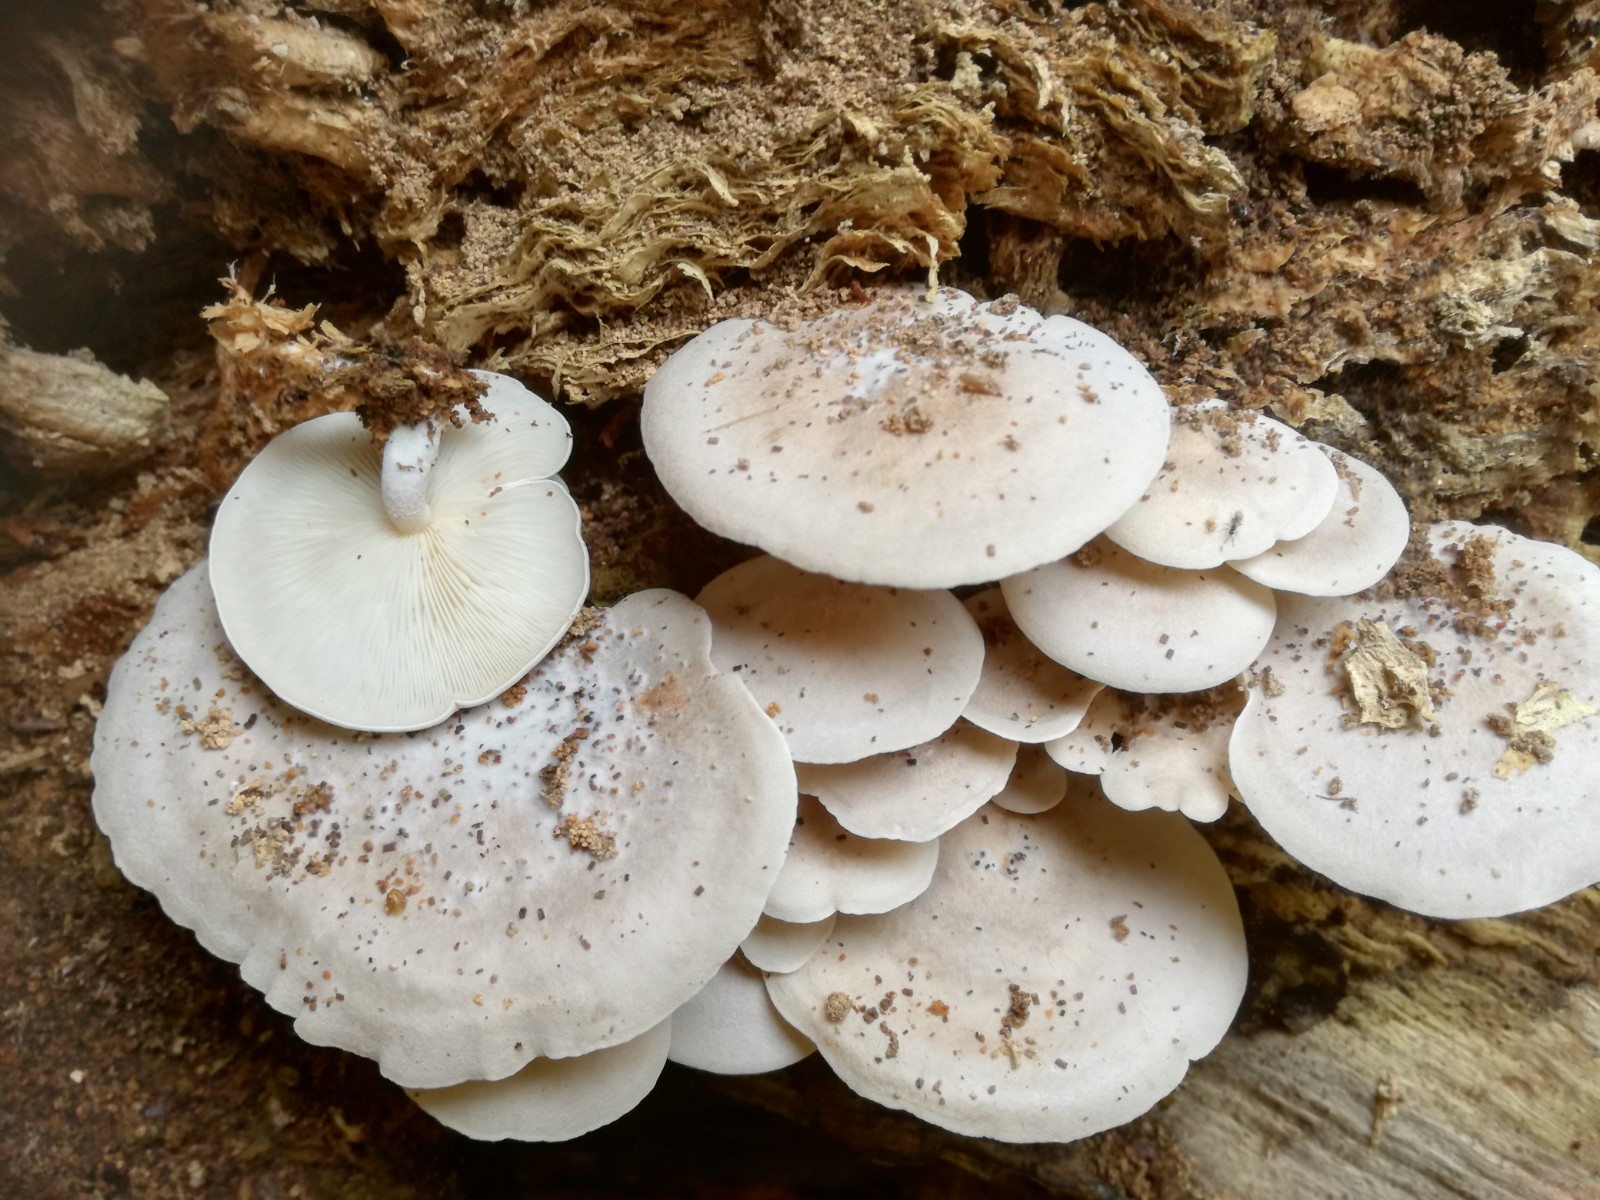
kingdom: Fungi
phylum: Basidiomycota
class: Agaricomycetes
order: Agaricales
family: Lyophyllaceae
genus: Ossicaulis
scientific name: Ossicaulis
